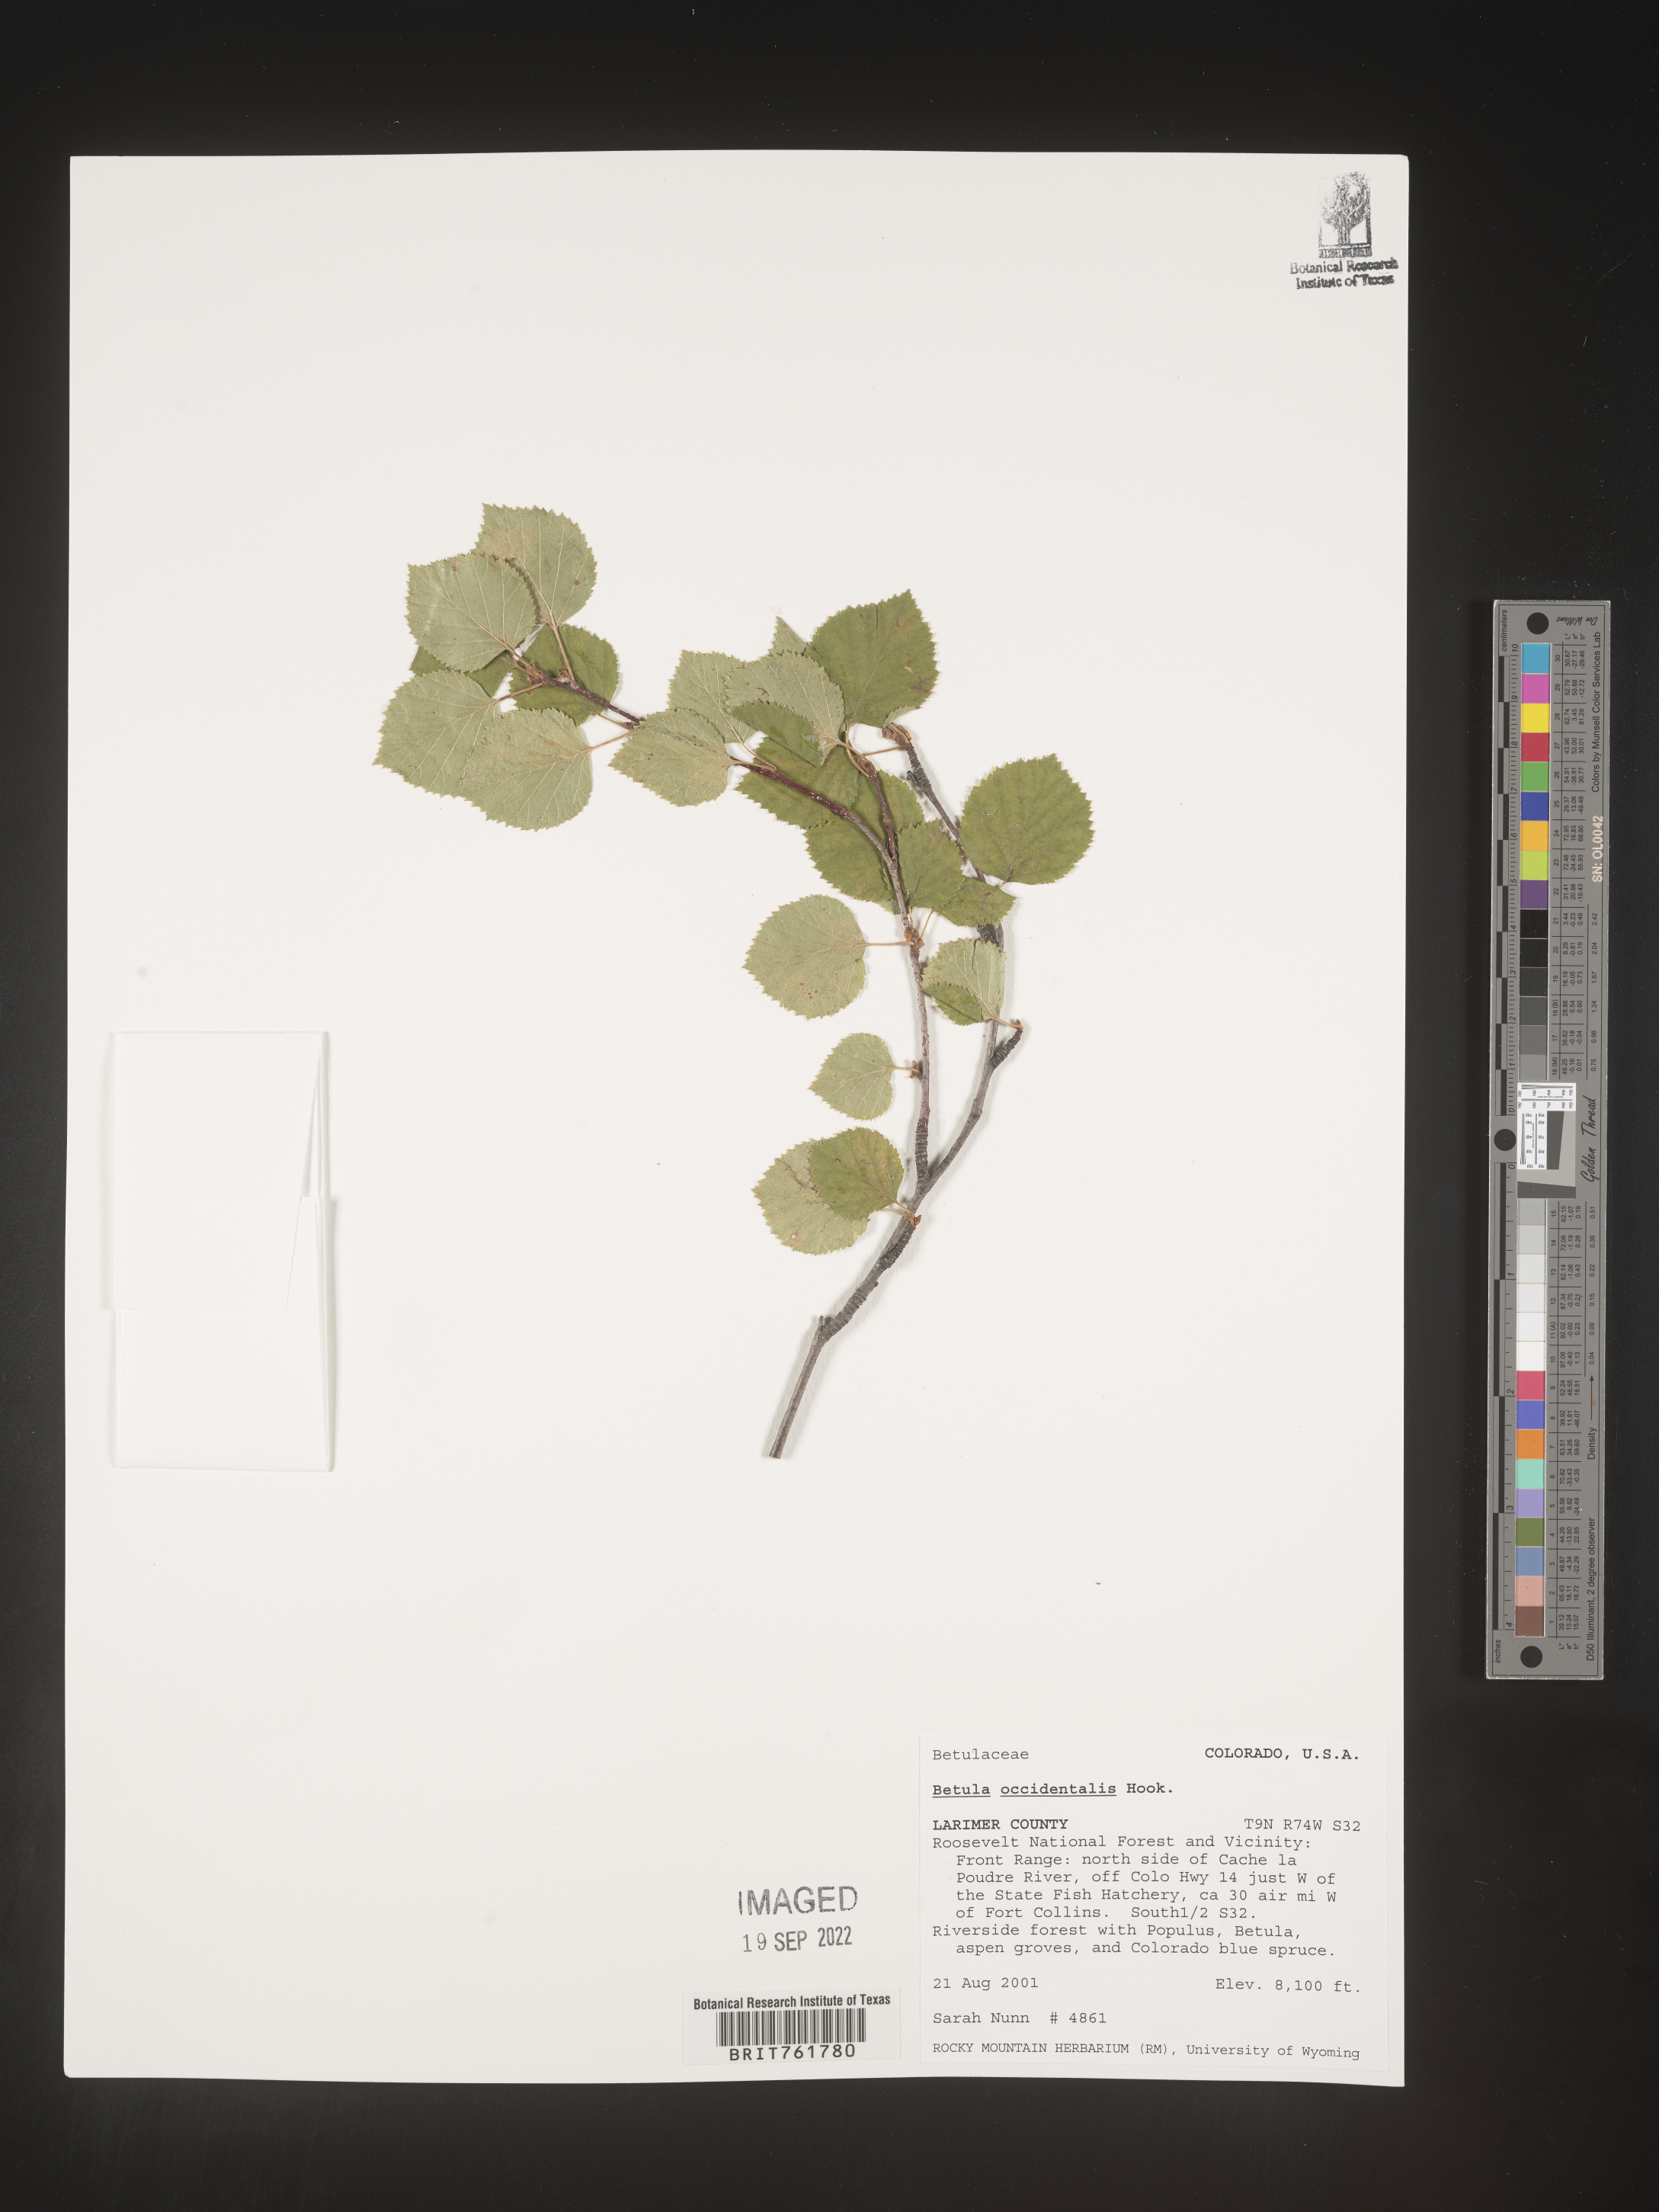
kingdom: Plantae
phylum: Tracheophyta
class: Magnoliopsida
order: Fagales
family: Betulaceae
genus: Betula
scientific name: Betula occidentalis
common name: River birch
